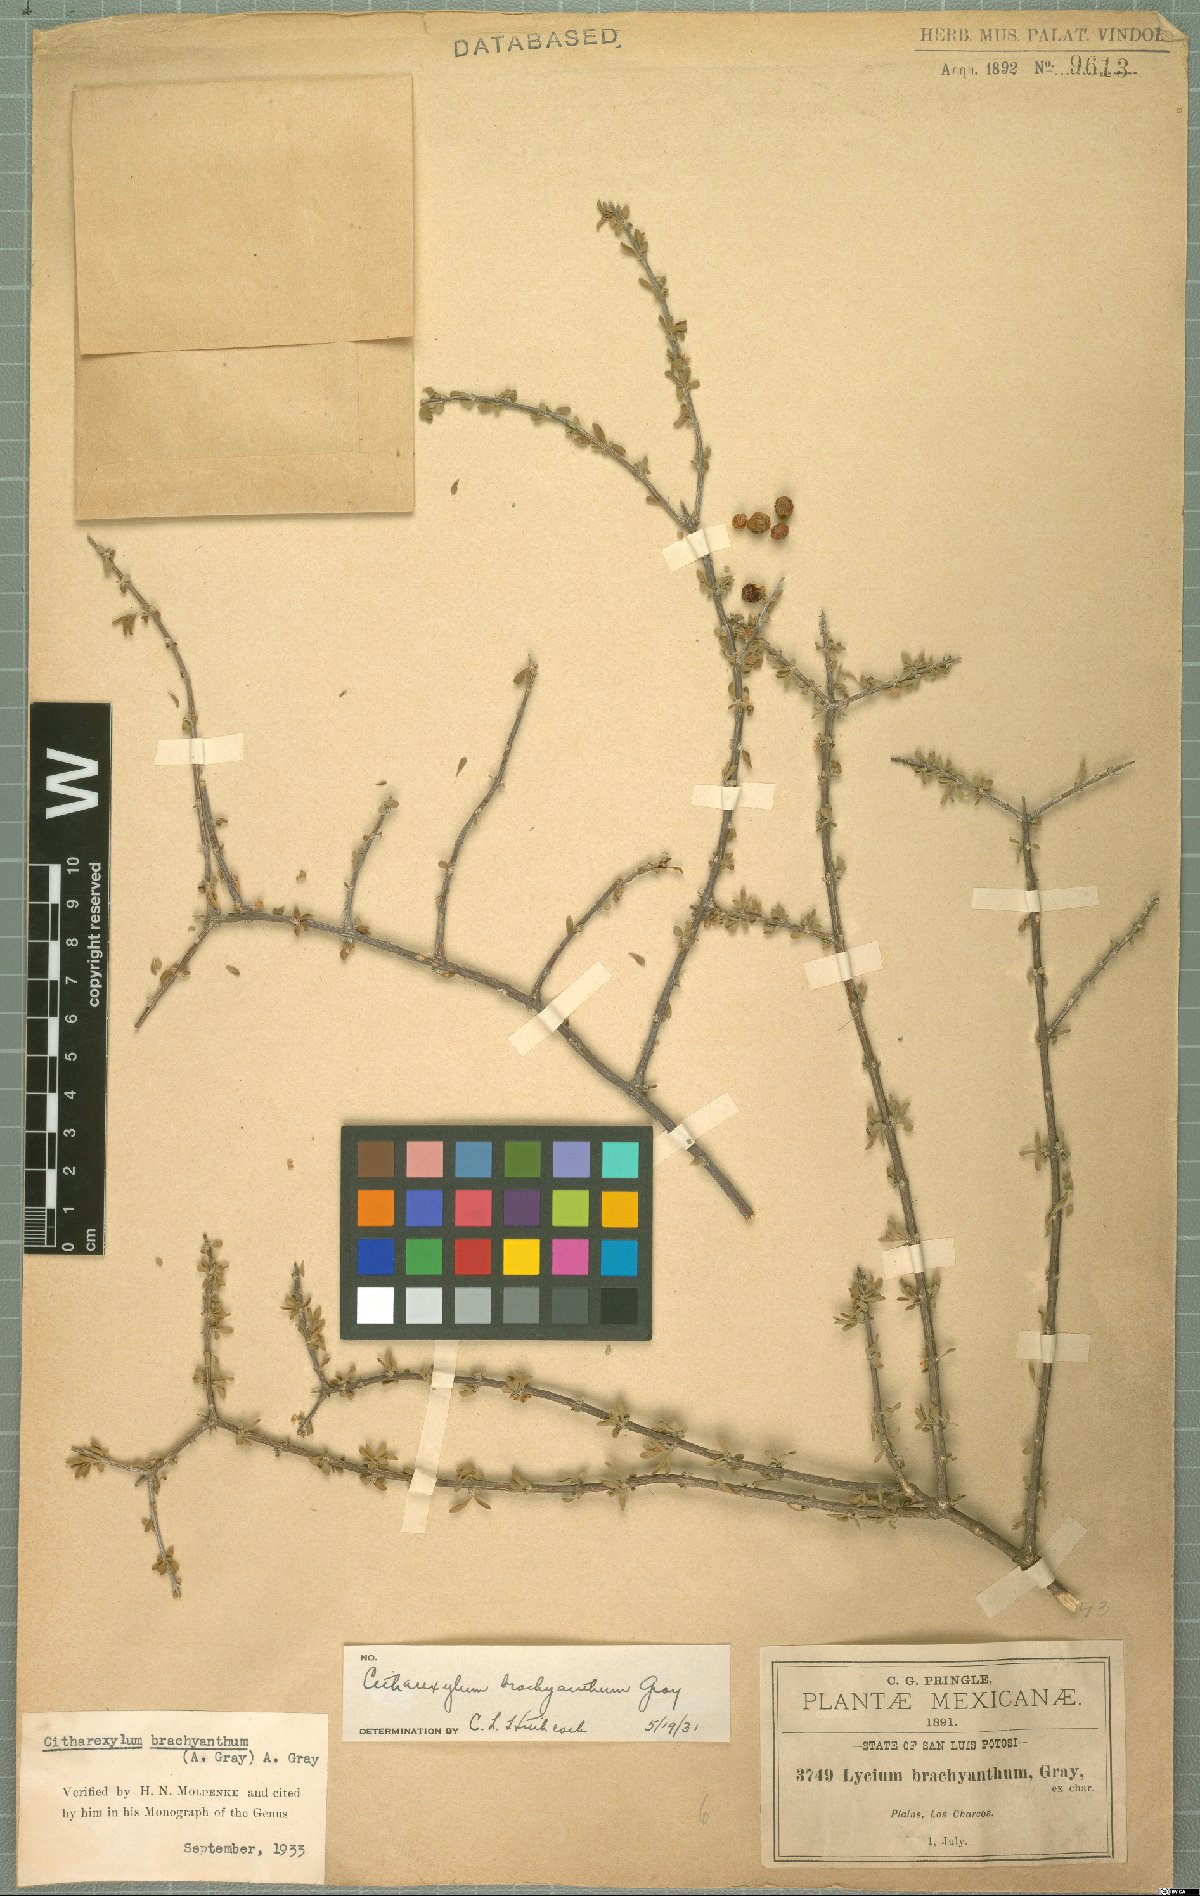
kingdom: Plantae
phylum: Tracheophyta
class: Magnoliopsida
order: Lamiales
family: Verbenaceae
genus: Citharexylum
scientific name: Citharexylum brachyanthum
